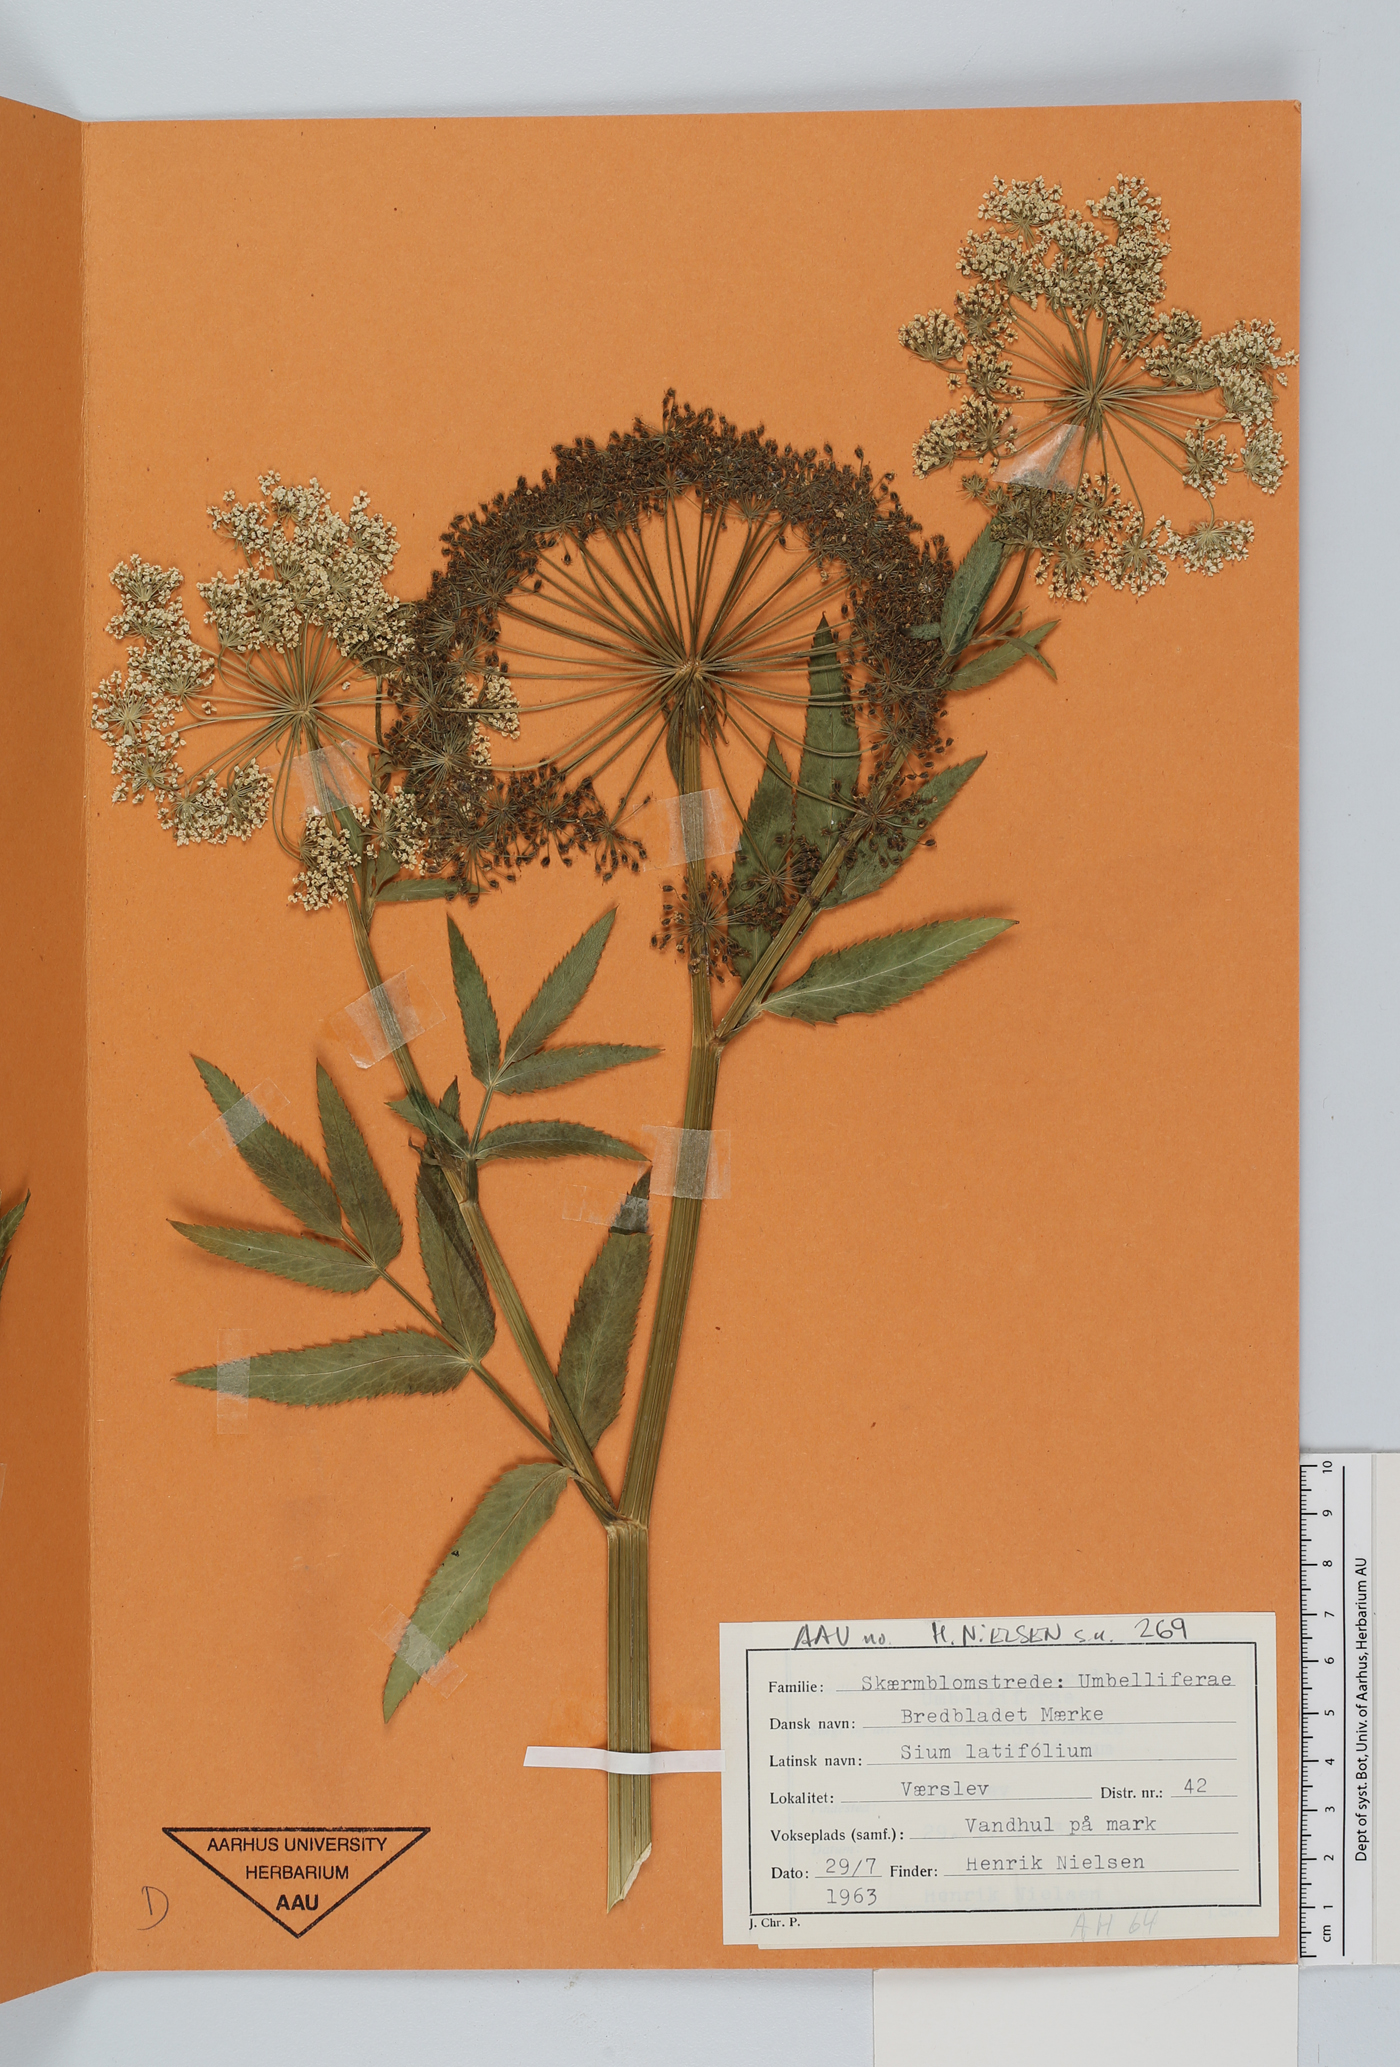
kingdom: Plantae
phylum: Tracheophyta
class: Magnoliopsida
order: Apiales
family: Apiaceae
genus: Sium
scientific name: Sium latifolium
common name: Greater water-parsnip
